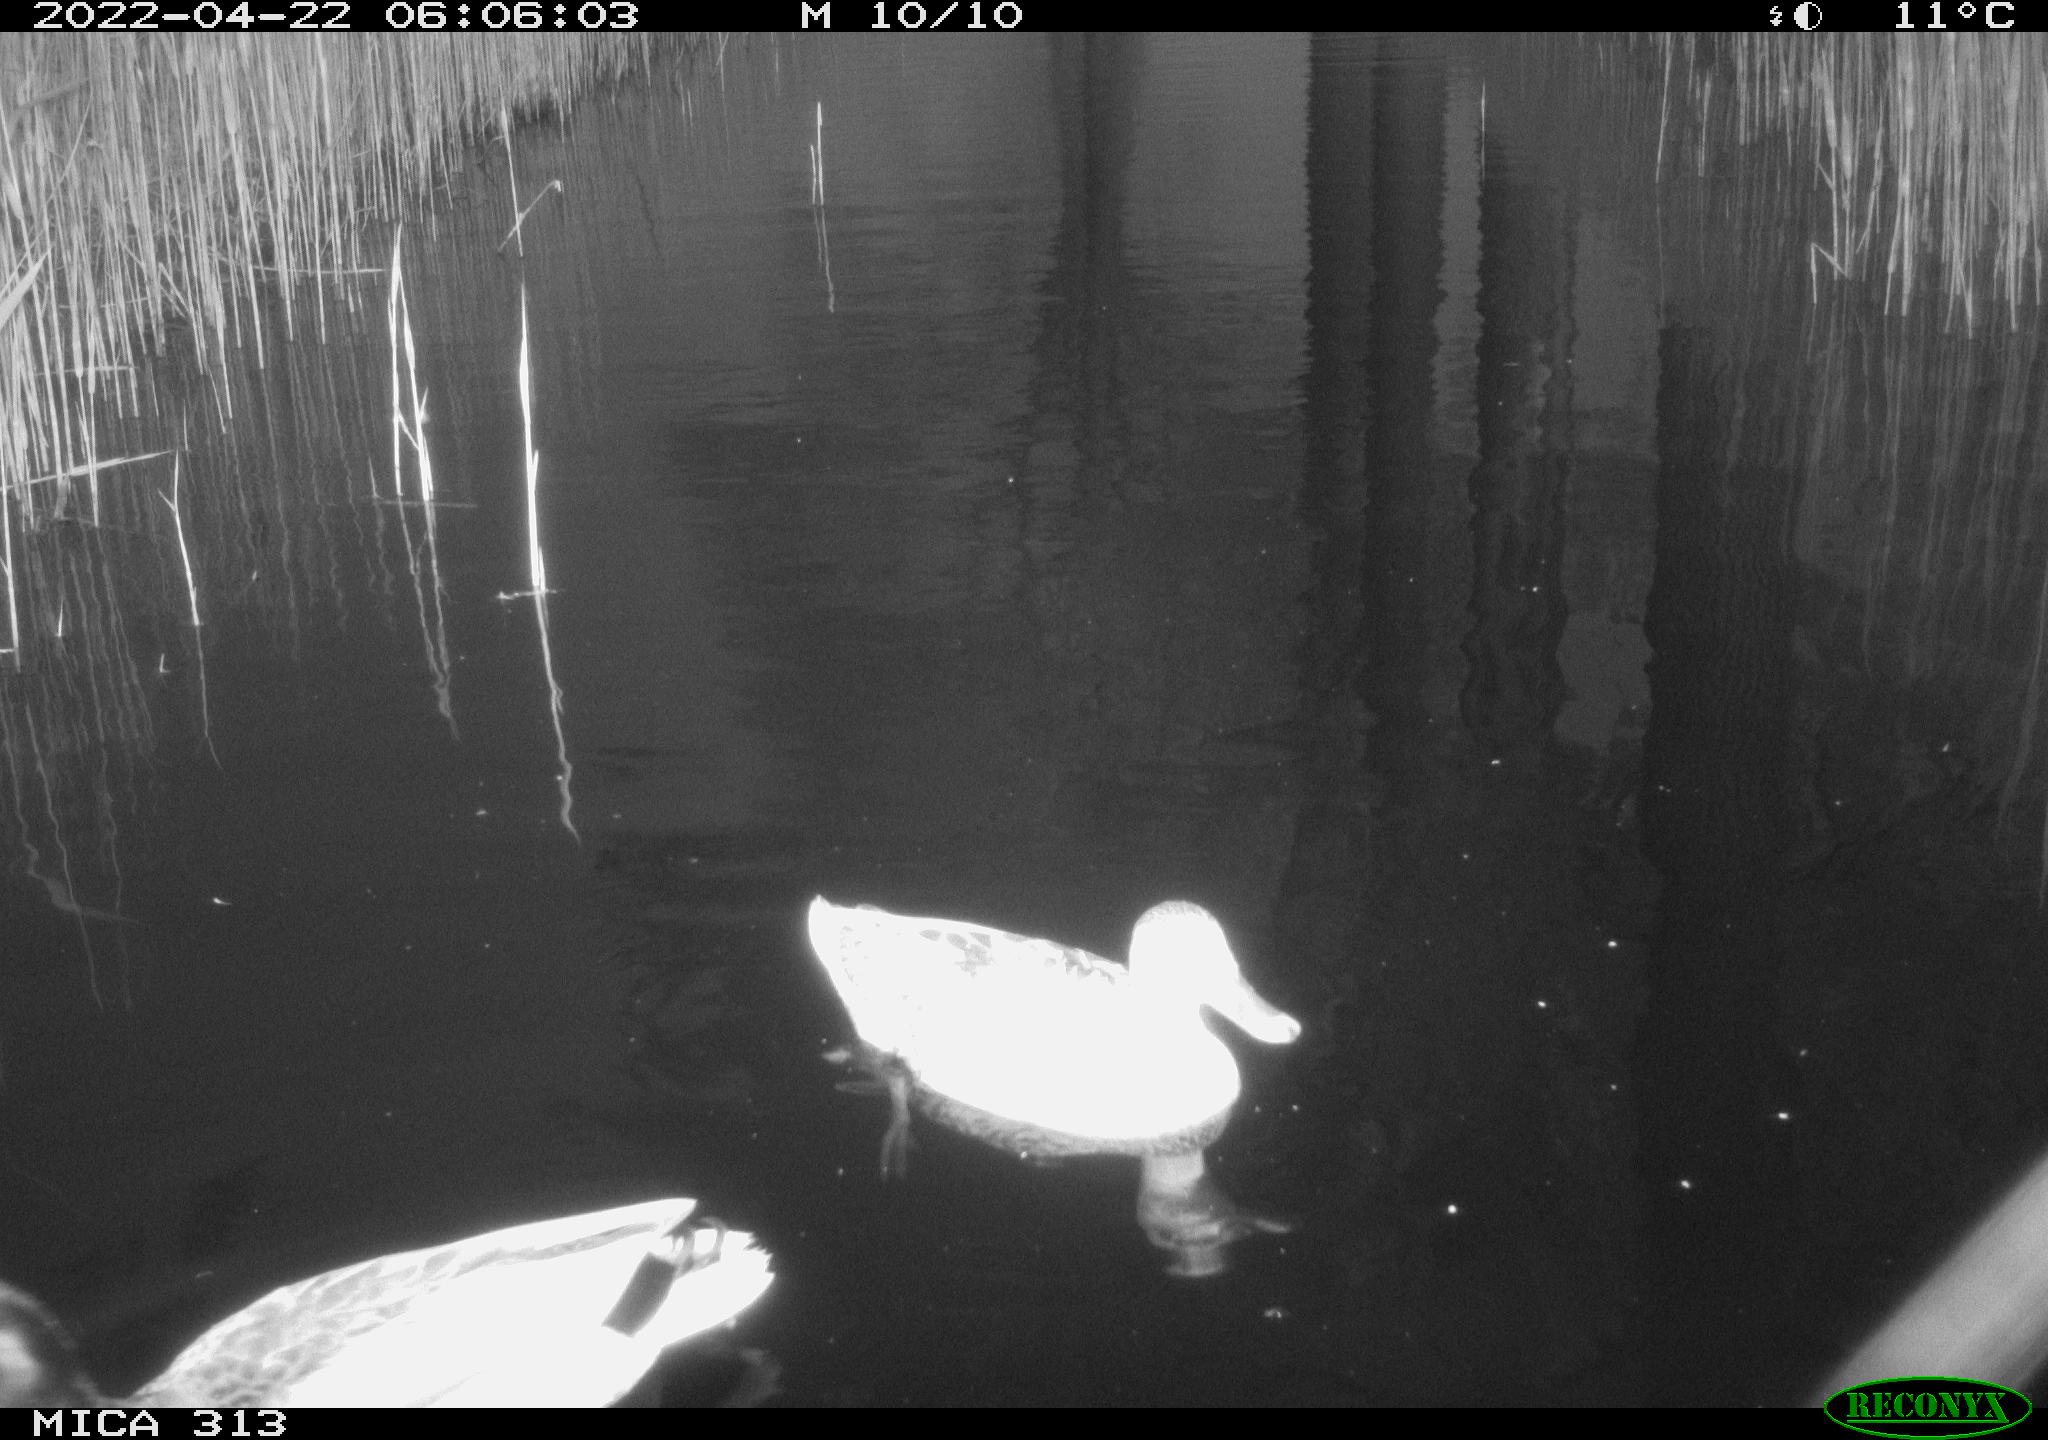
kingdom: Animalia
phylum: Chordata
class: Aves
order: Anseriformes
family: Anatidae
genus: Mareca
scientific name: Mareca strepera
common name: Gadwall
